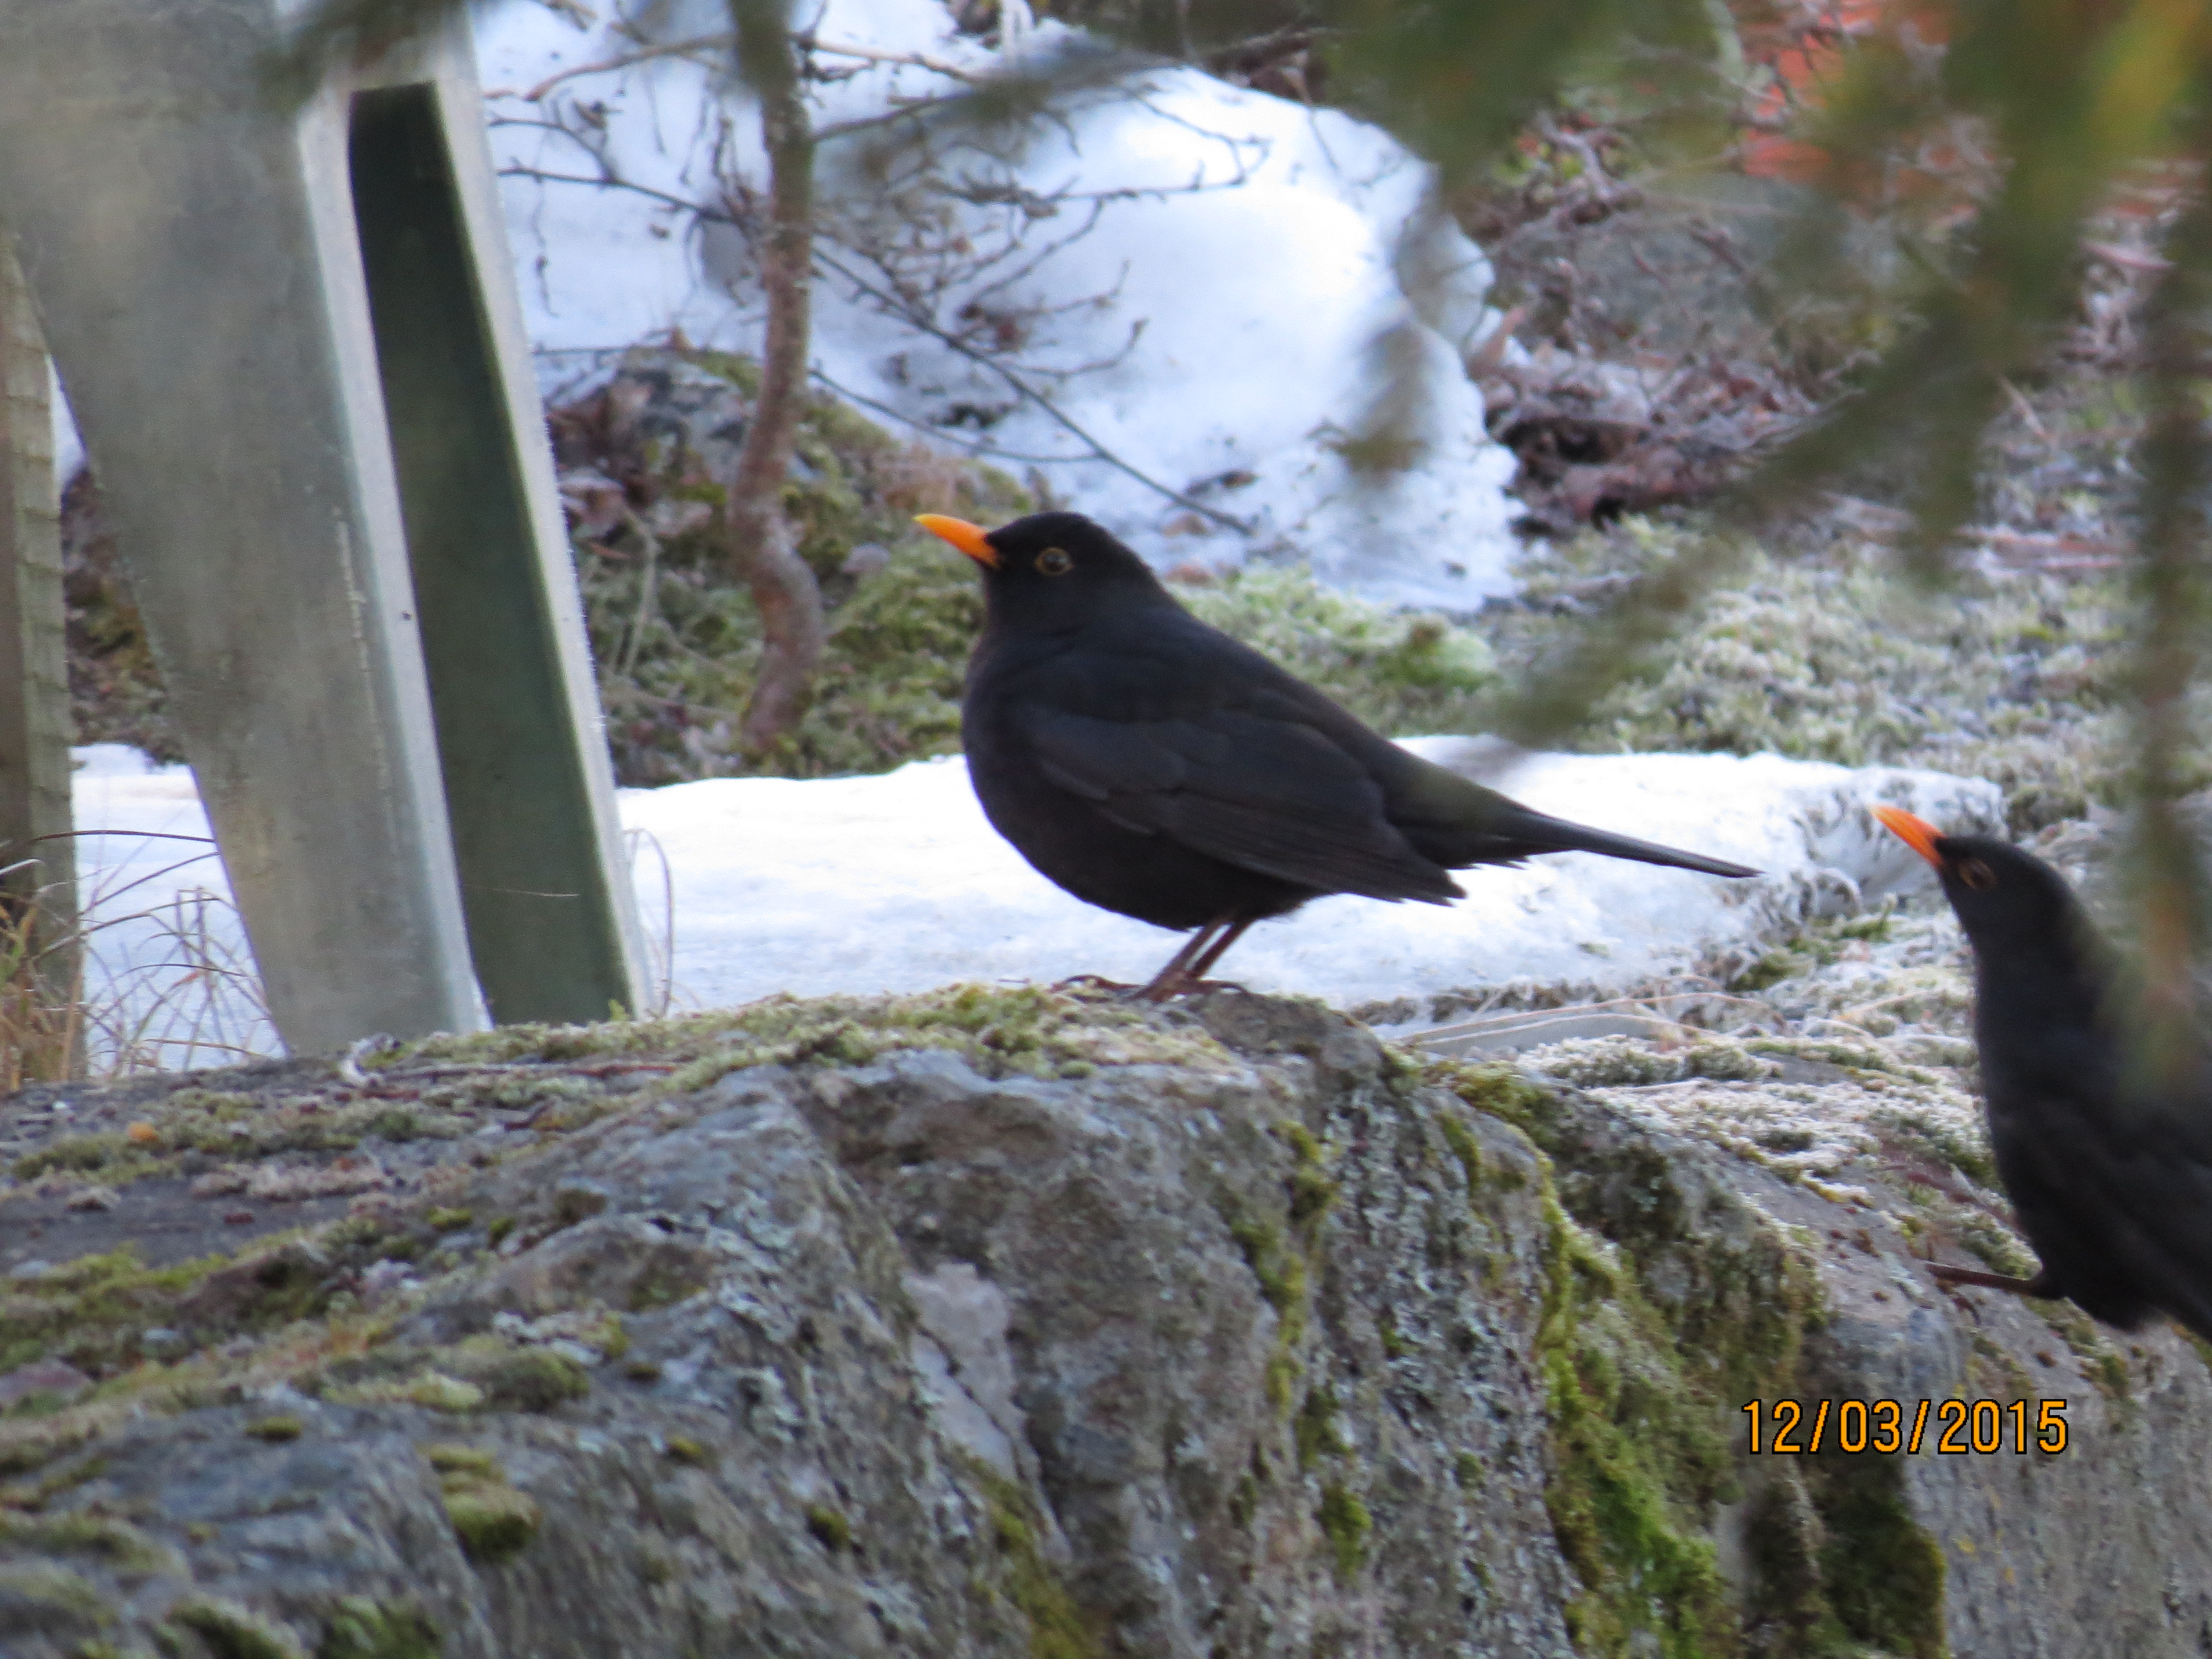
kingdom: Animalia
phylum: Chordata
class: Aves
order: Passeriformes
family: Turdidae
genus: Turdus
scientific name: Turdus merula
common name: Common blackbird
